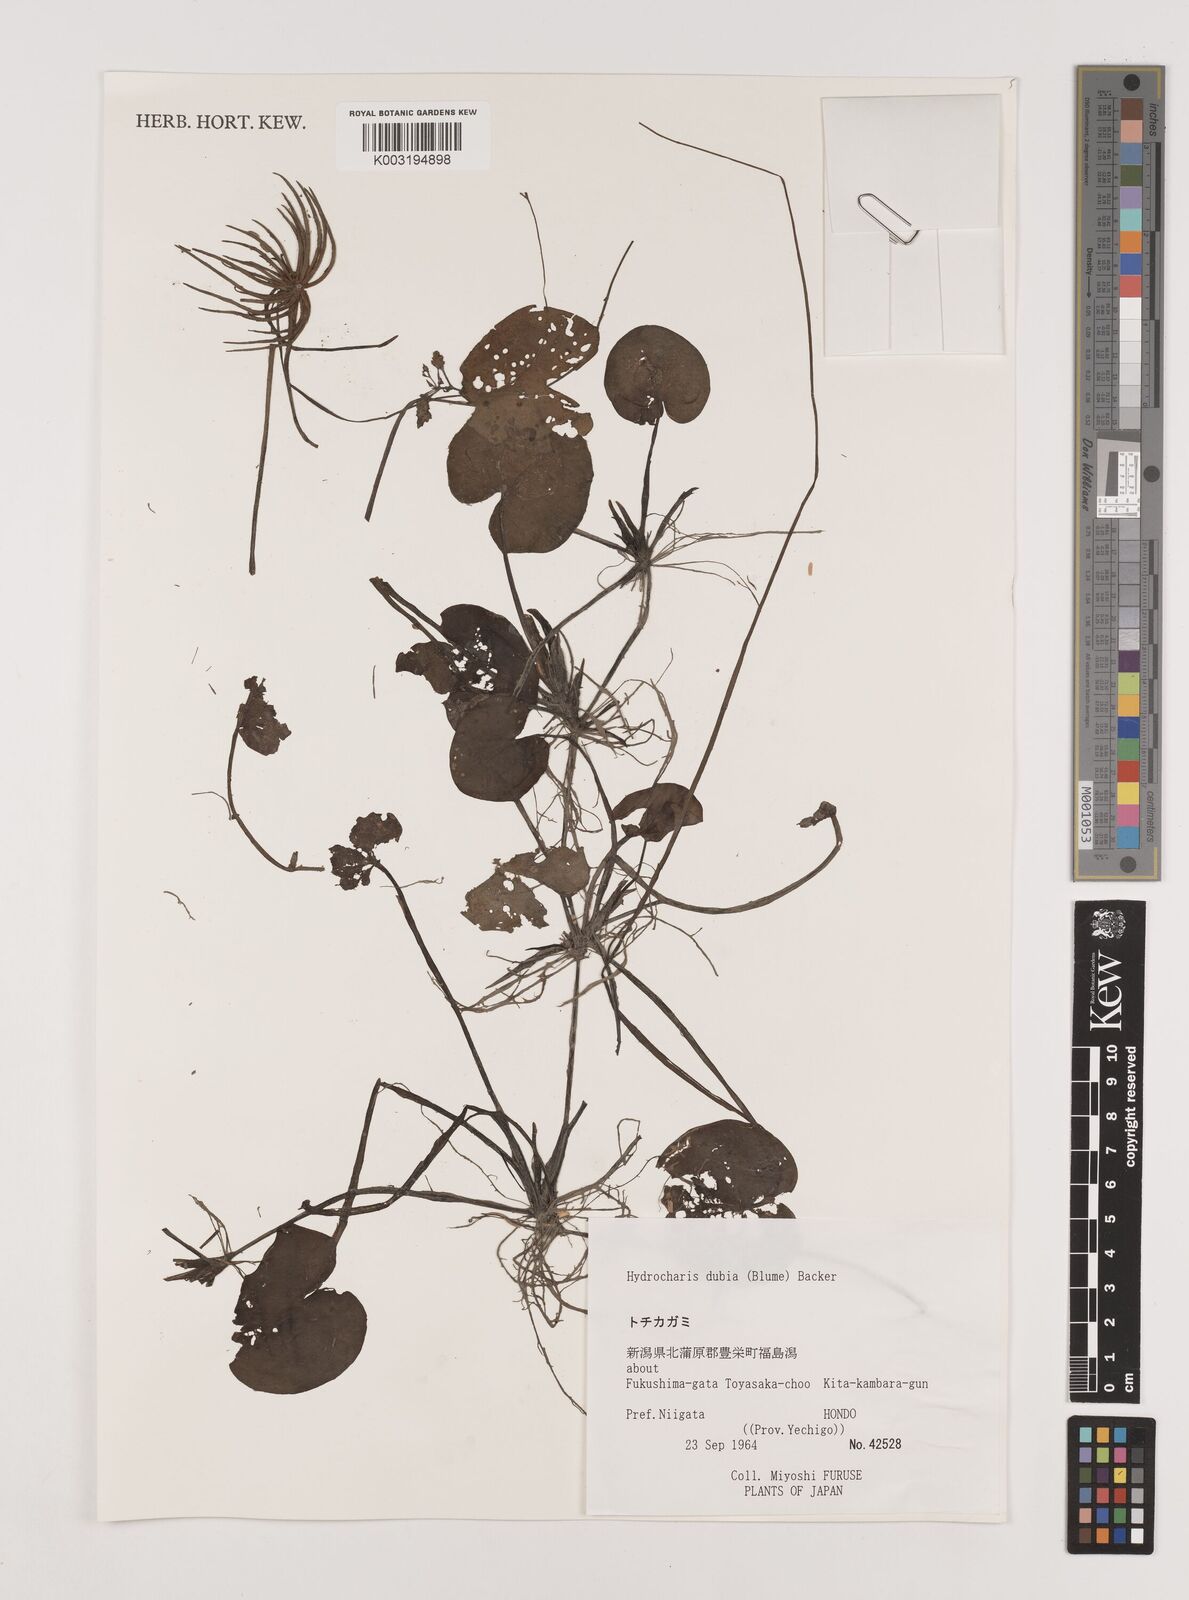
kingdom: Plantae
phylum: Tracheophyta
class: Liliopsida
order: Alismatales
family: Hydrocharitaceae
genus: Hydrocharis
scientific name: Hydrocharis dubia
